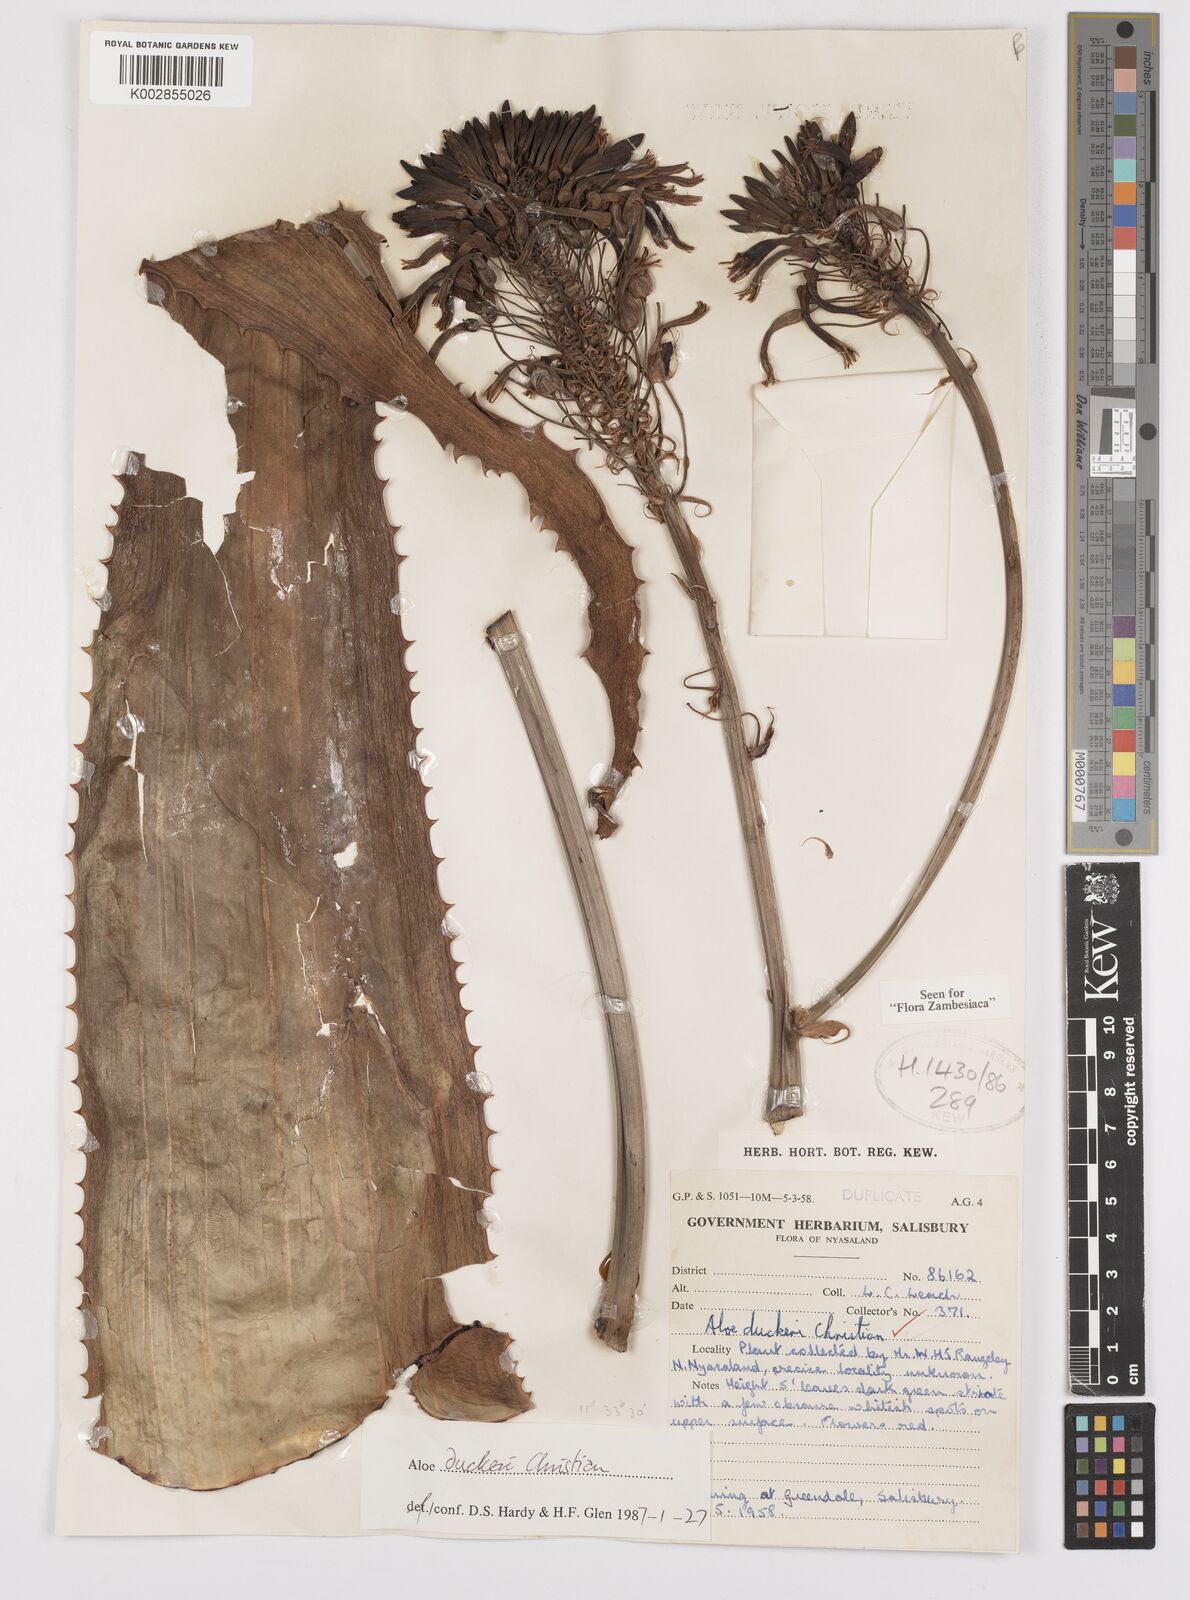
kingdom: Plantae
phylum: Tracheophyta
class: Liliopsida
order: Asparagales
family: Asphodelaceae
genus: Aloe
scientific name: Aloe duckeri
